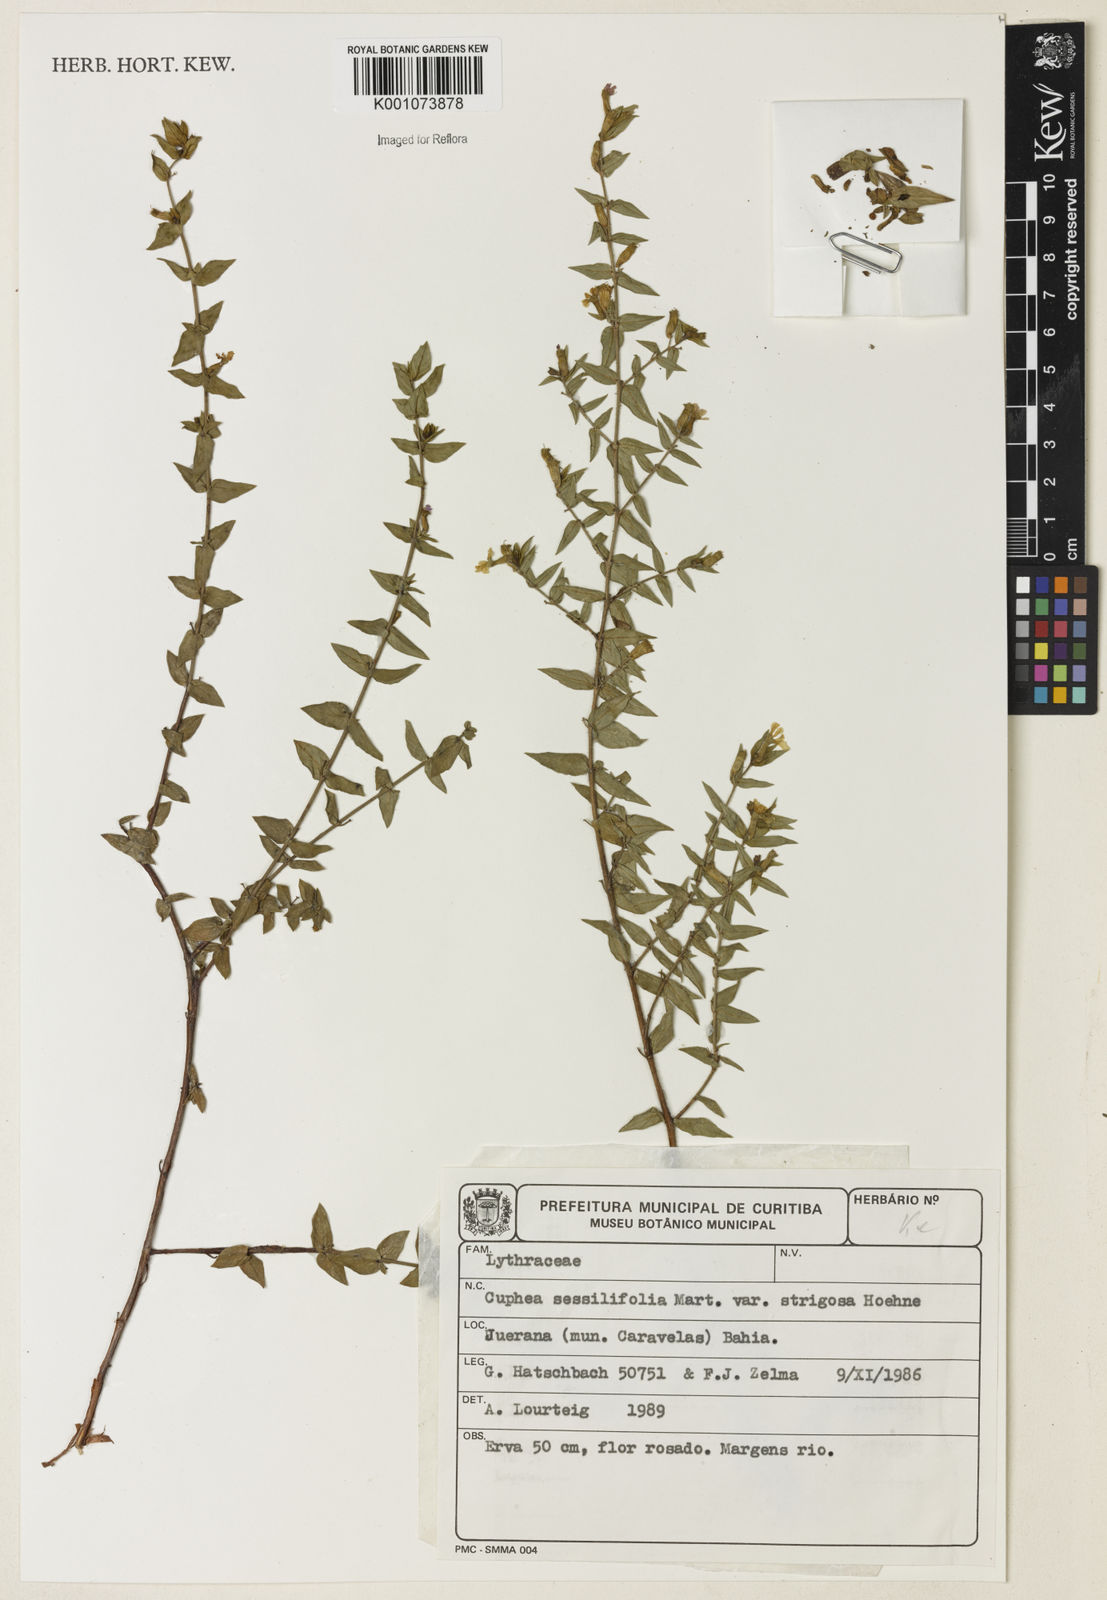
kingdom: Plantae
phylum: Tracheophyta
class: Magnoliopsida
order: Myrtales
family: Lythraceae
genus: Cuphea
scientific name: Cuphea sessilifolia
